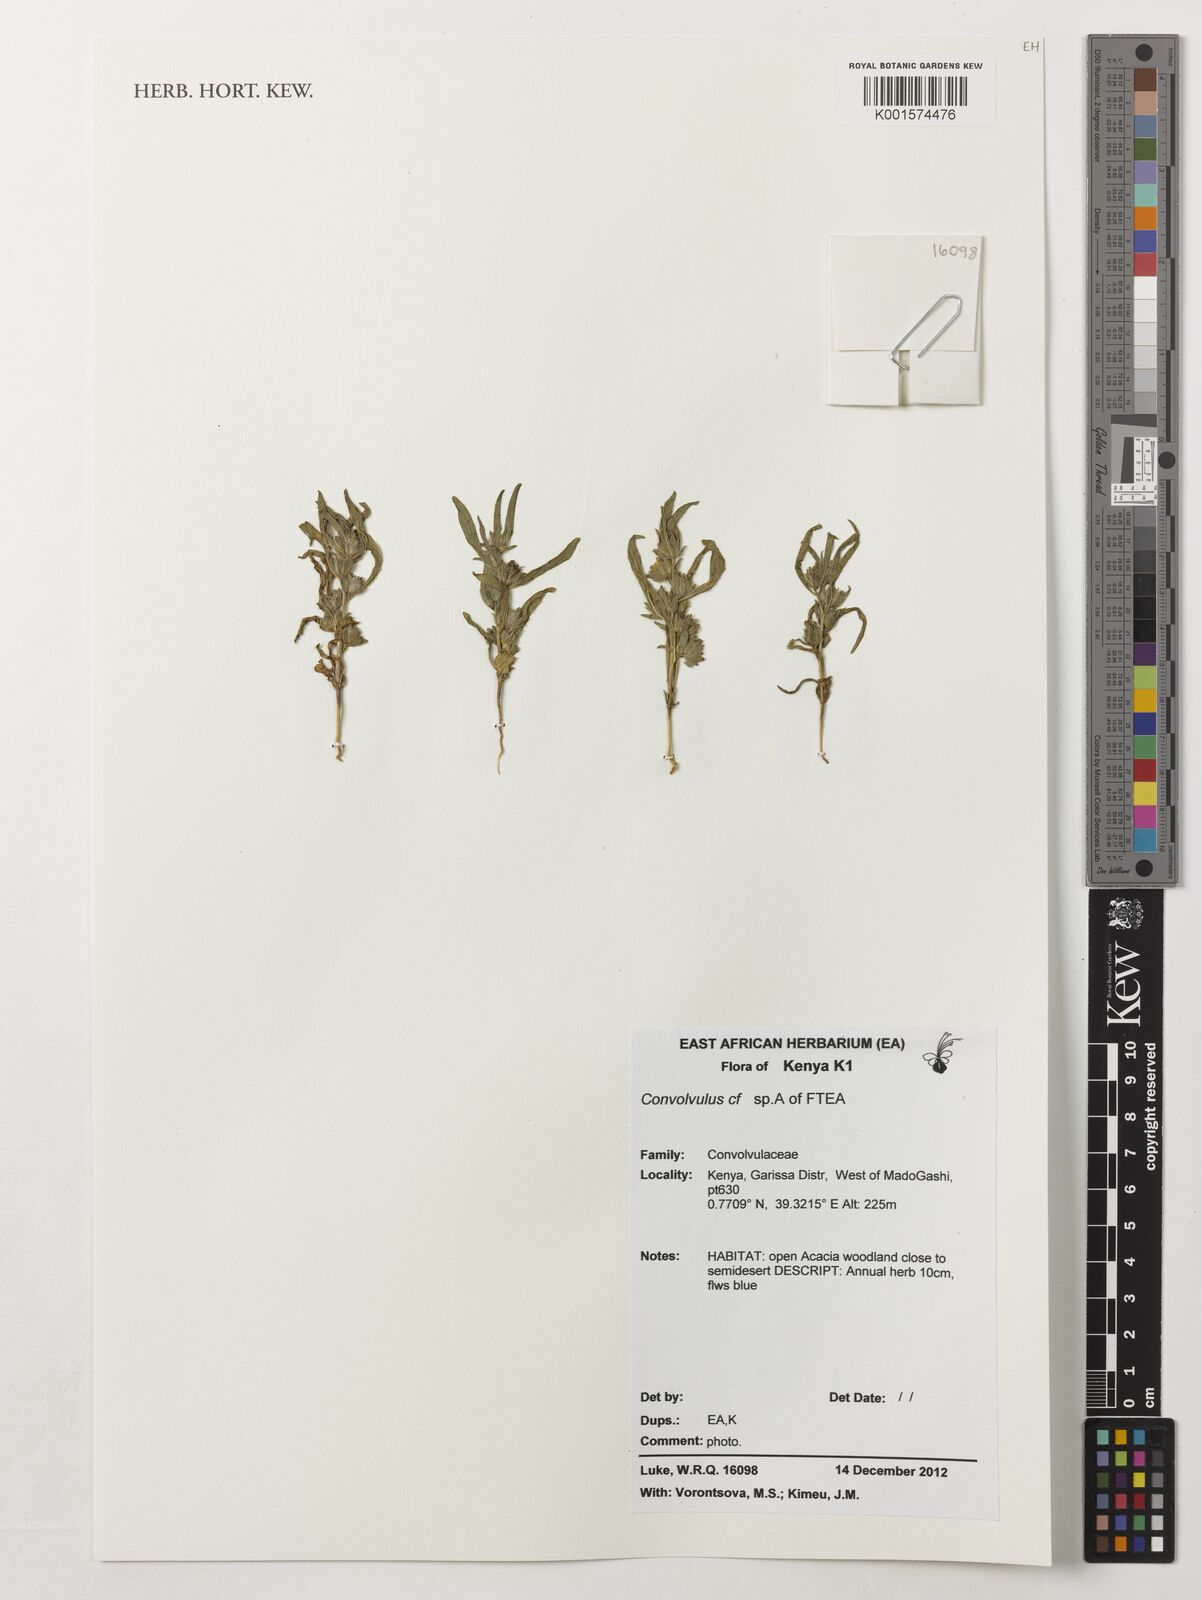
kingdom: Plantae
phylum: Tracheophyta
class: Magnoliopsida
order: Solanales
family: Convolvulaceae
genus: Convolvulus
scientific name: Convolvulus
